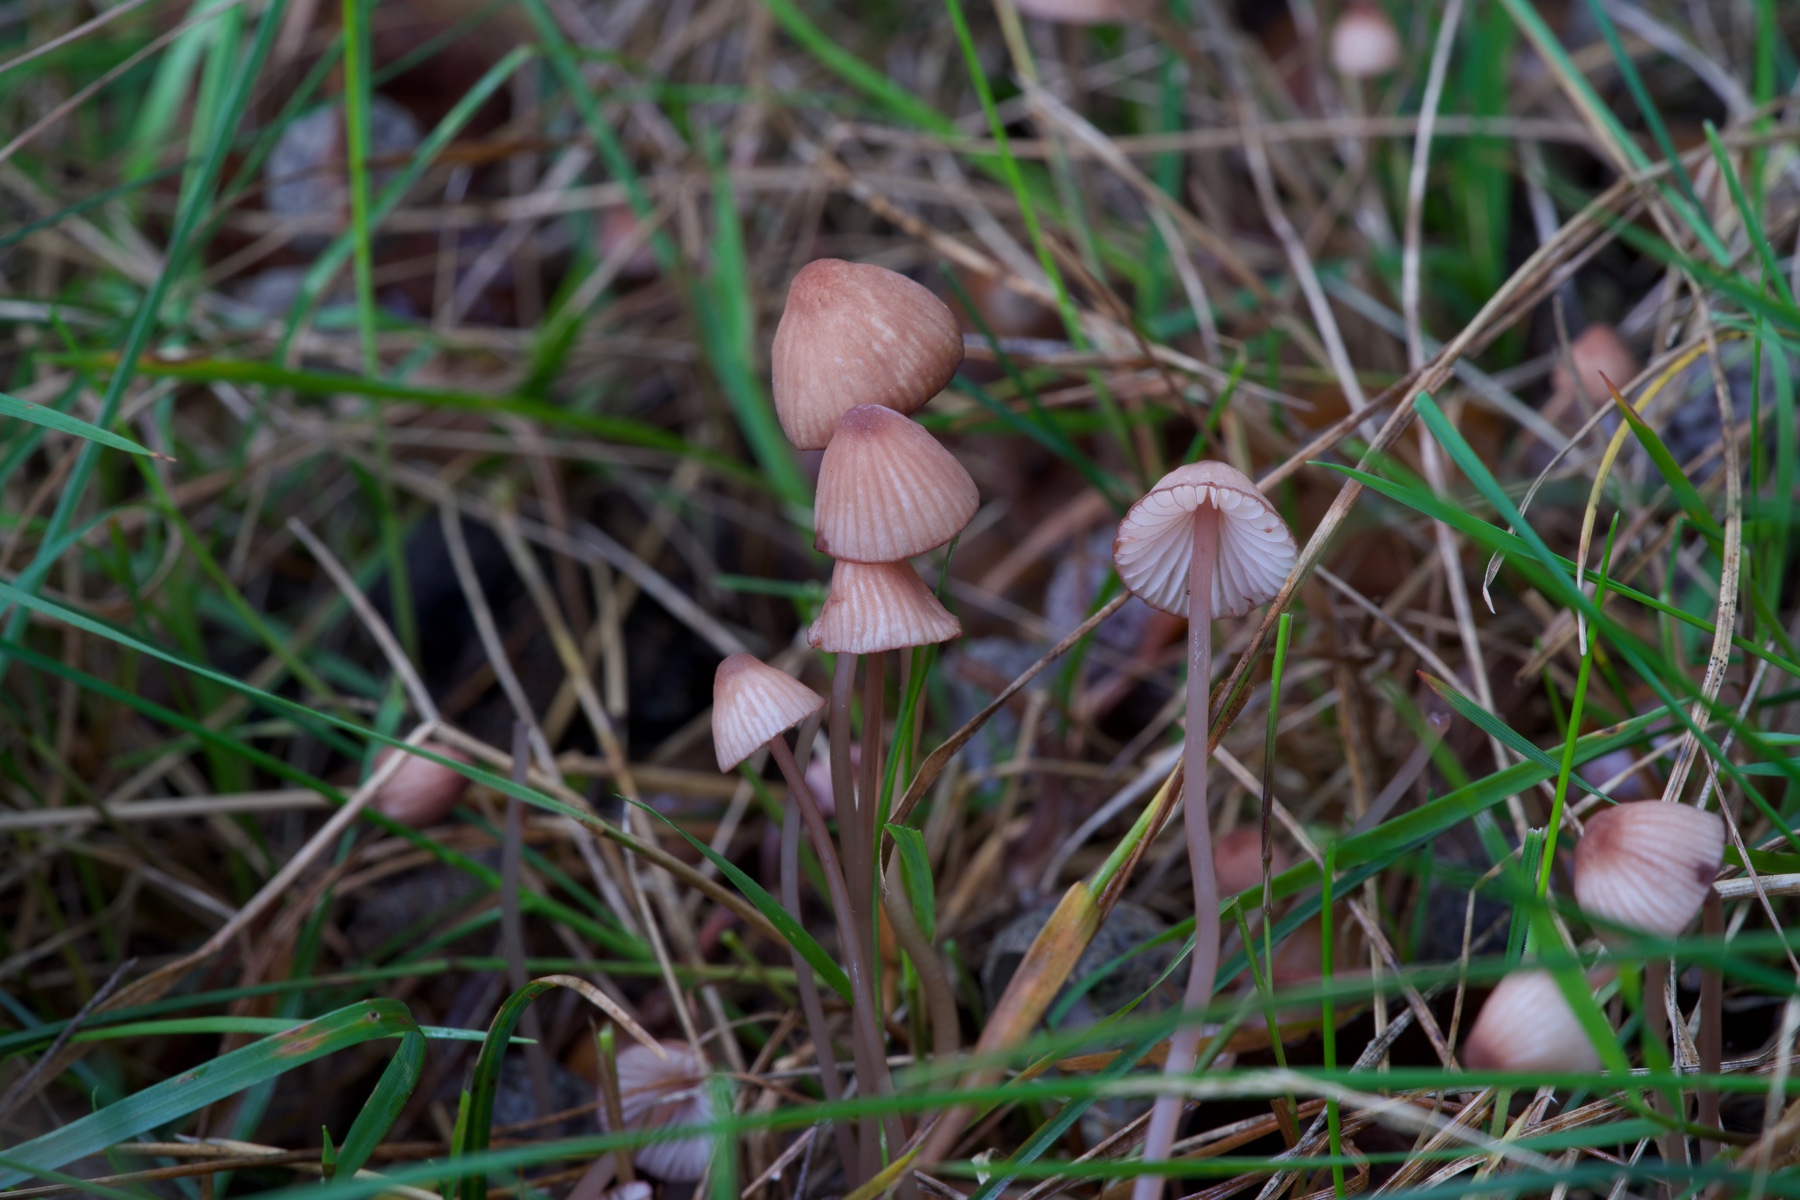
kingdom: Fungi
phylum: Basidiomycota
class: Agaricomycetes
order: Agaricales
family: Mycenaceae
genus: Mycena
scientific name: Mycena sanguinolenta
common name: rødmælket huesvamp
